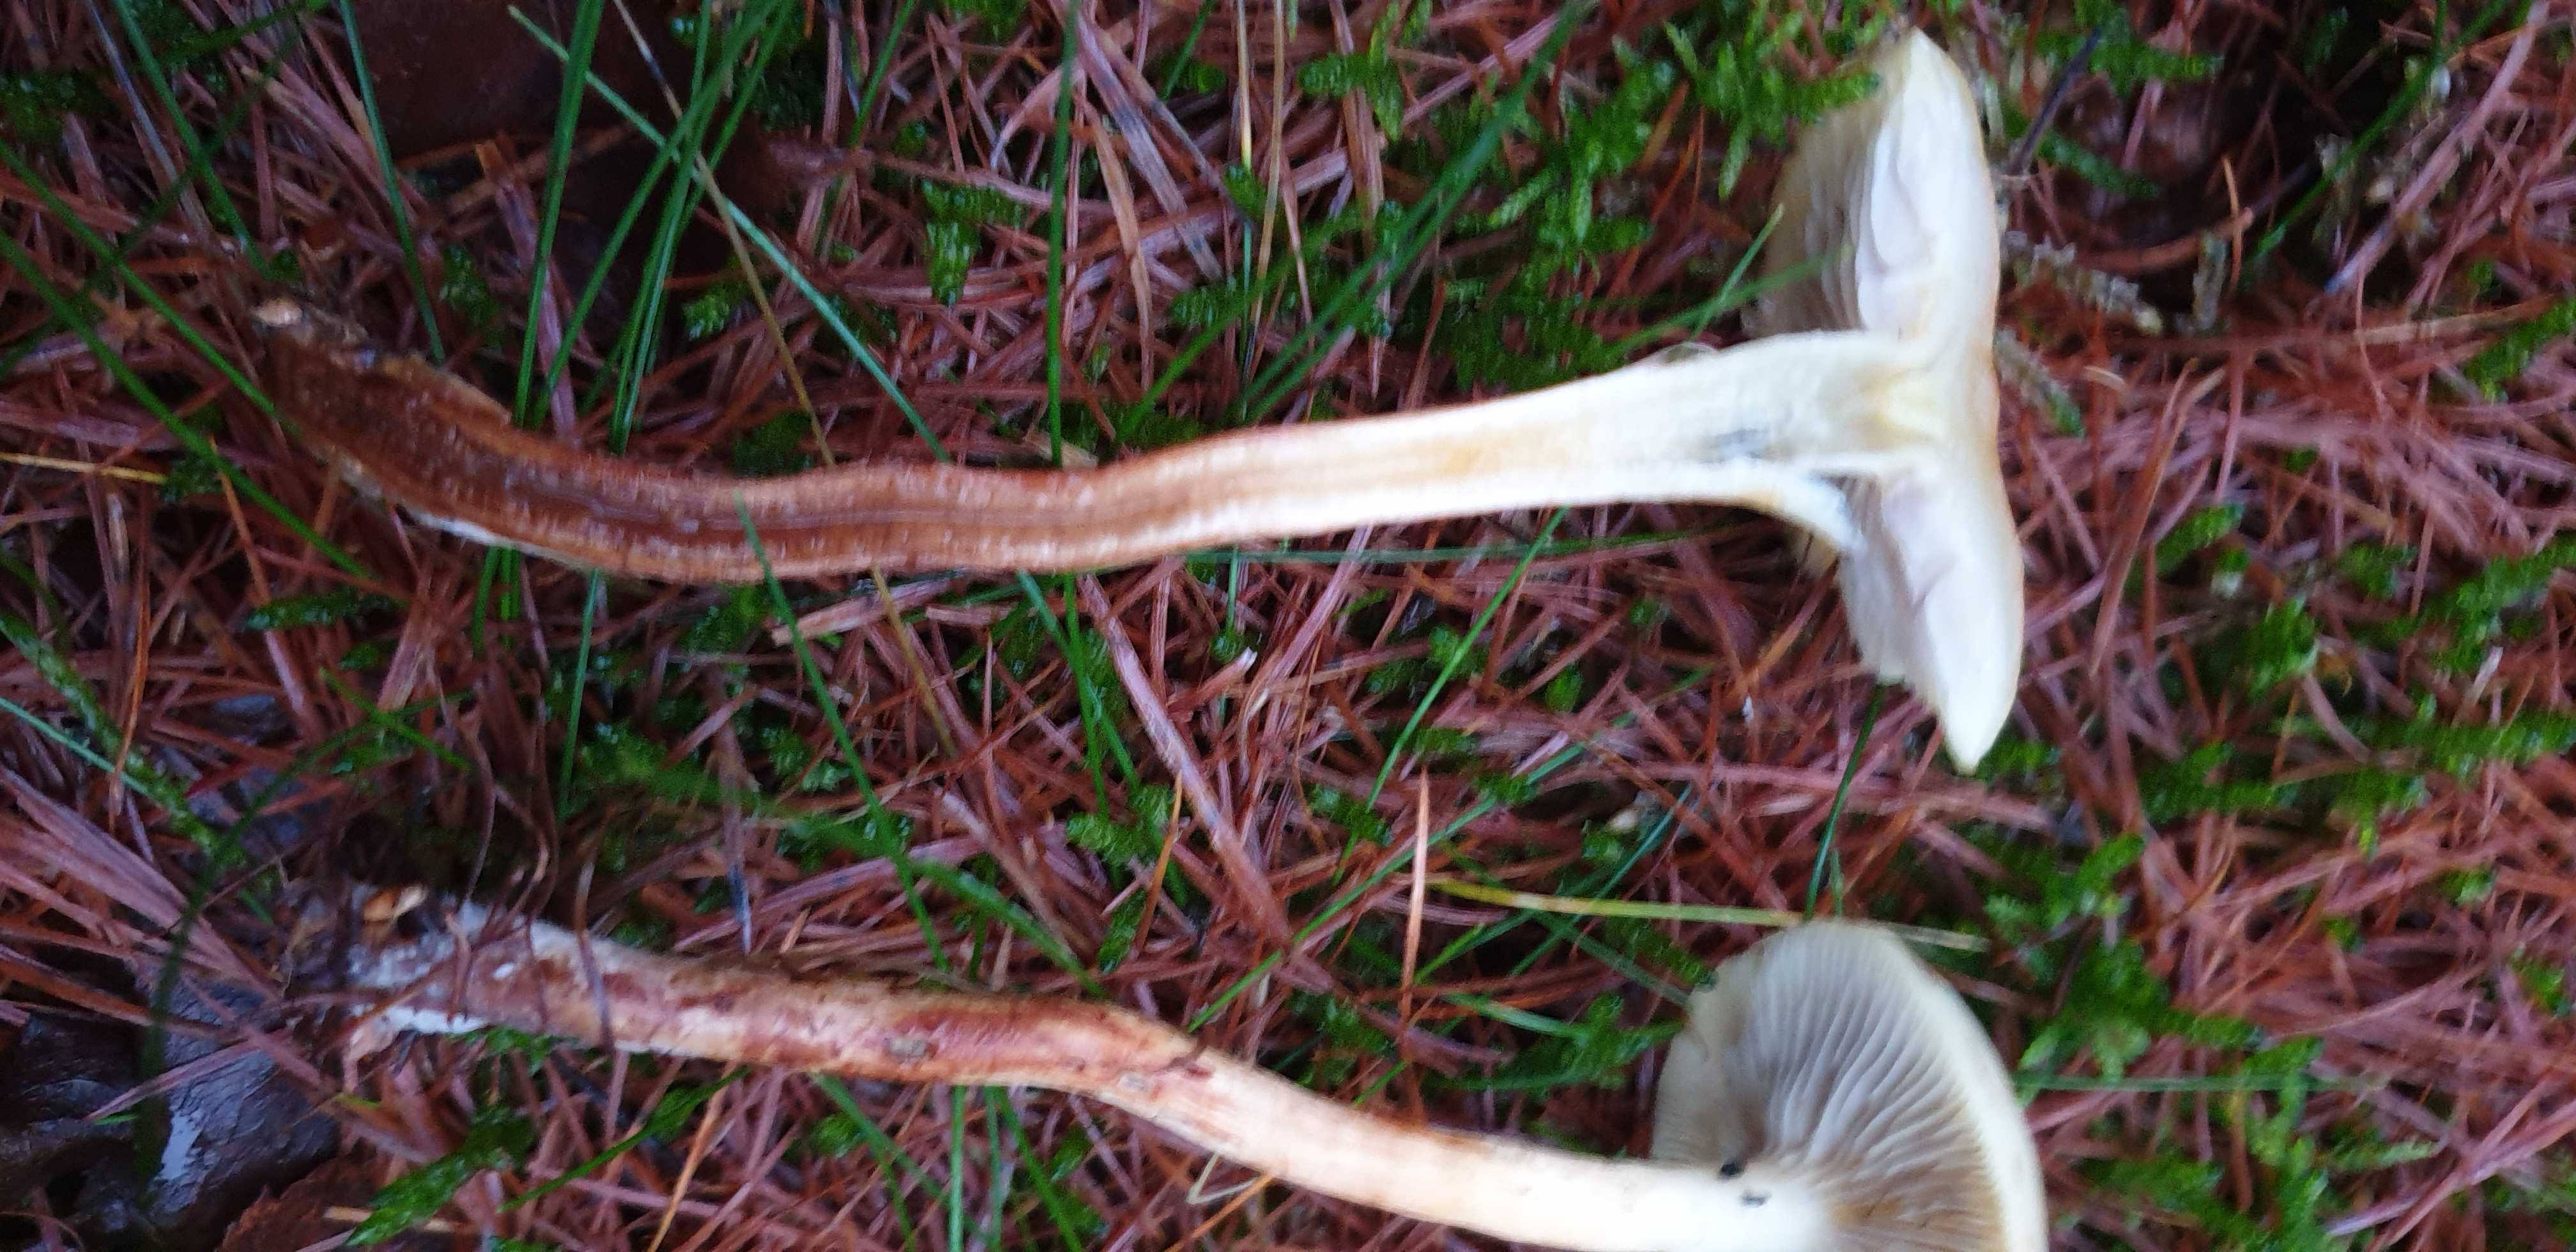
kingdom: Fungi
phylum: Basidiomycota
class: Agaricomycetes
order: Agaricales
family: Strophariaceae
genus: Hypholoma
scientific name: Hypholoma capnoides
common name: gran-svovlhat
